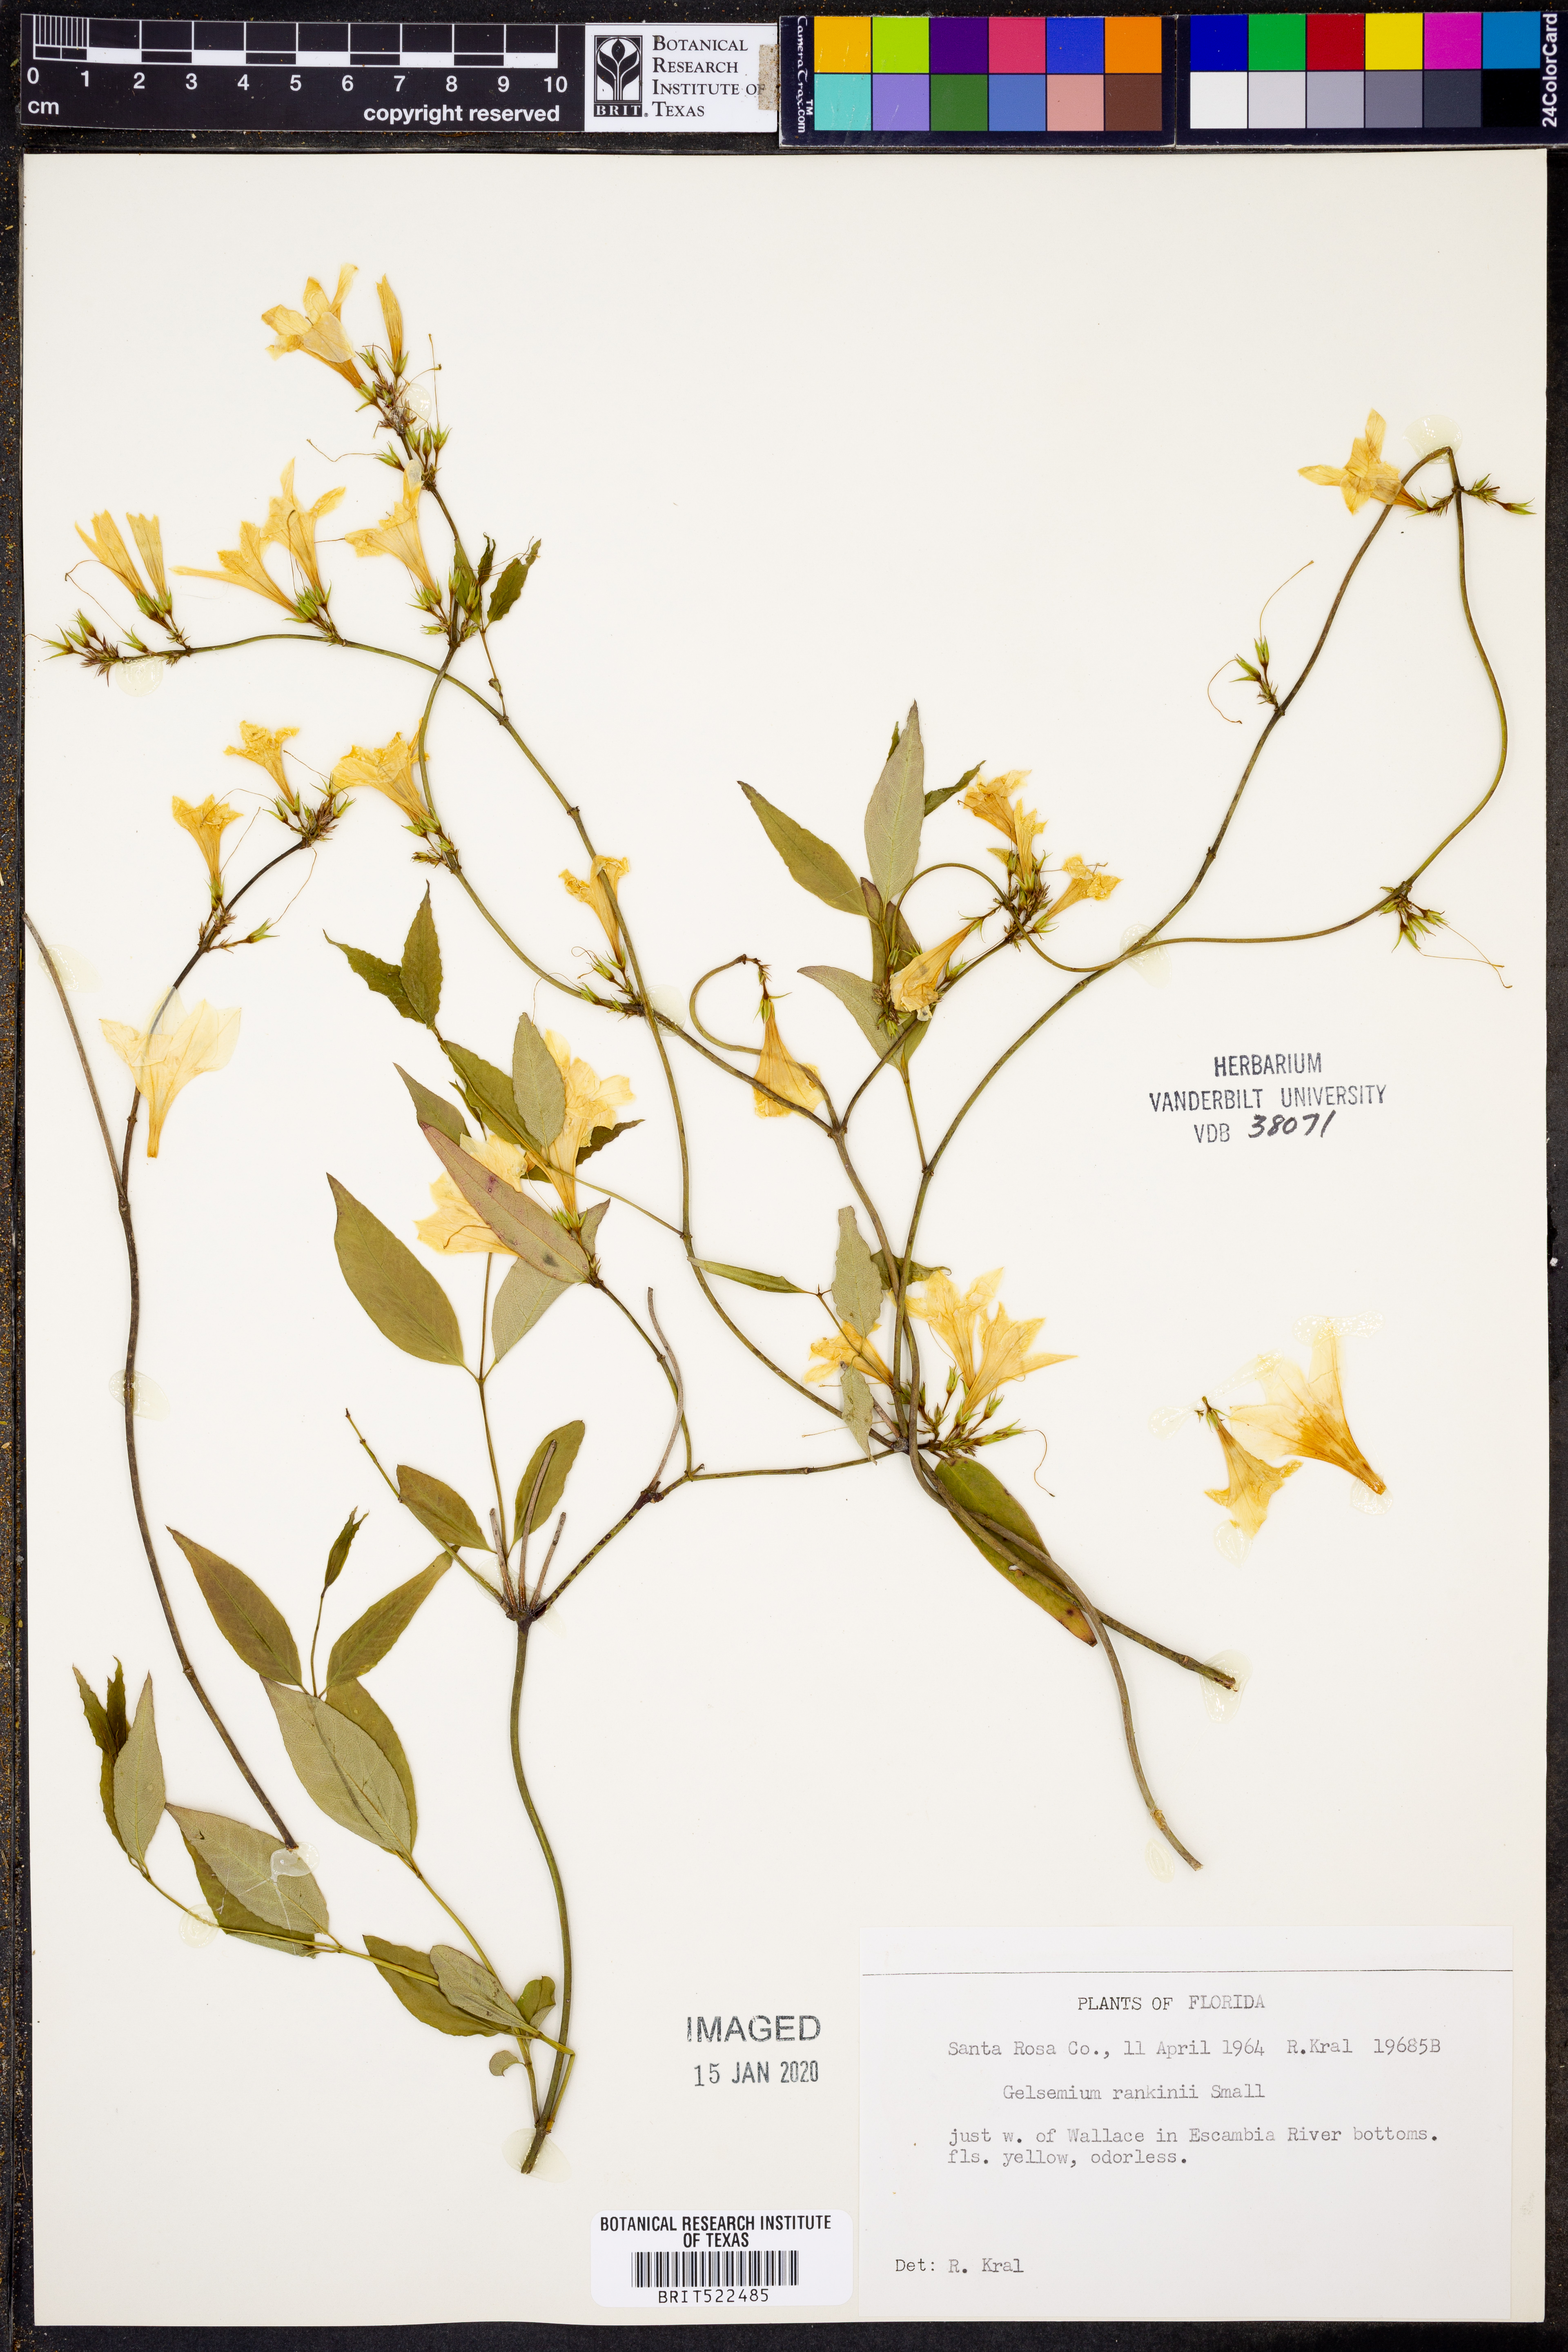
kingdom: Plantae
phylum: Tracheophyta
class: Magnoliopsida
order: Gentianales
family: Gelsemiaceae
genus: Gelsemium
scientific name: Gelsemium rankinii
